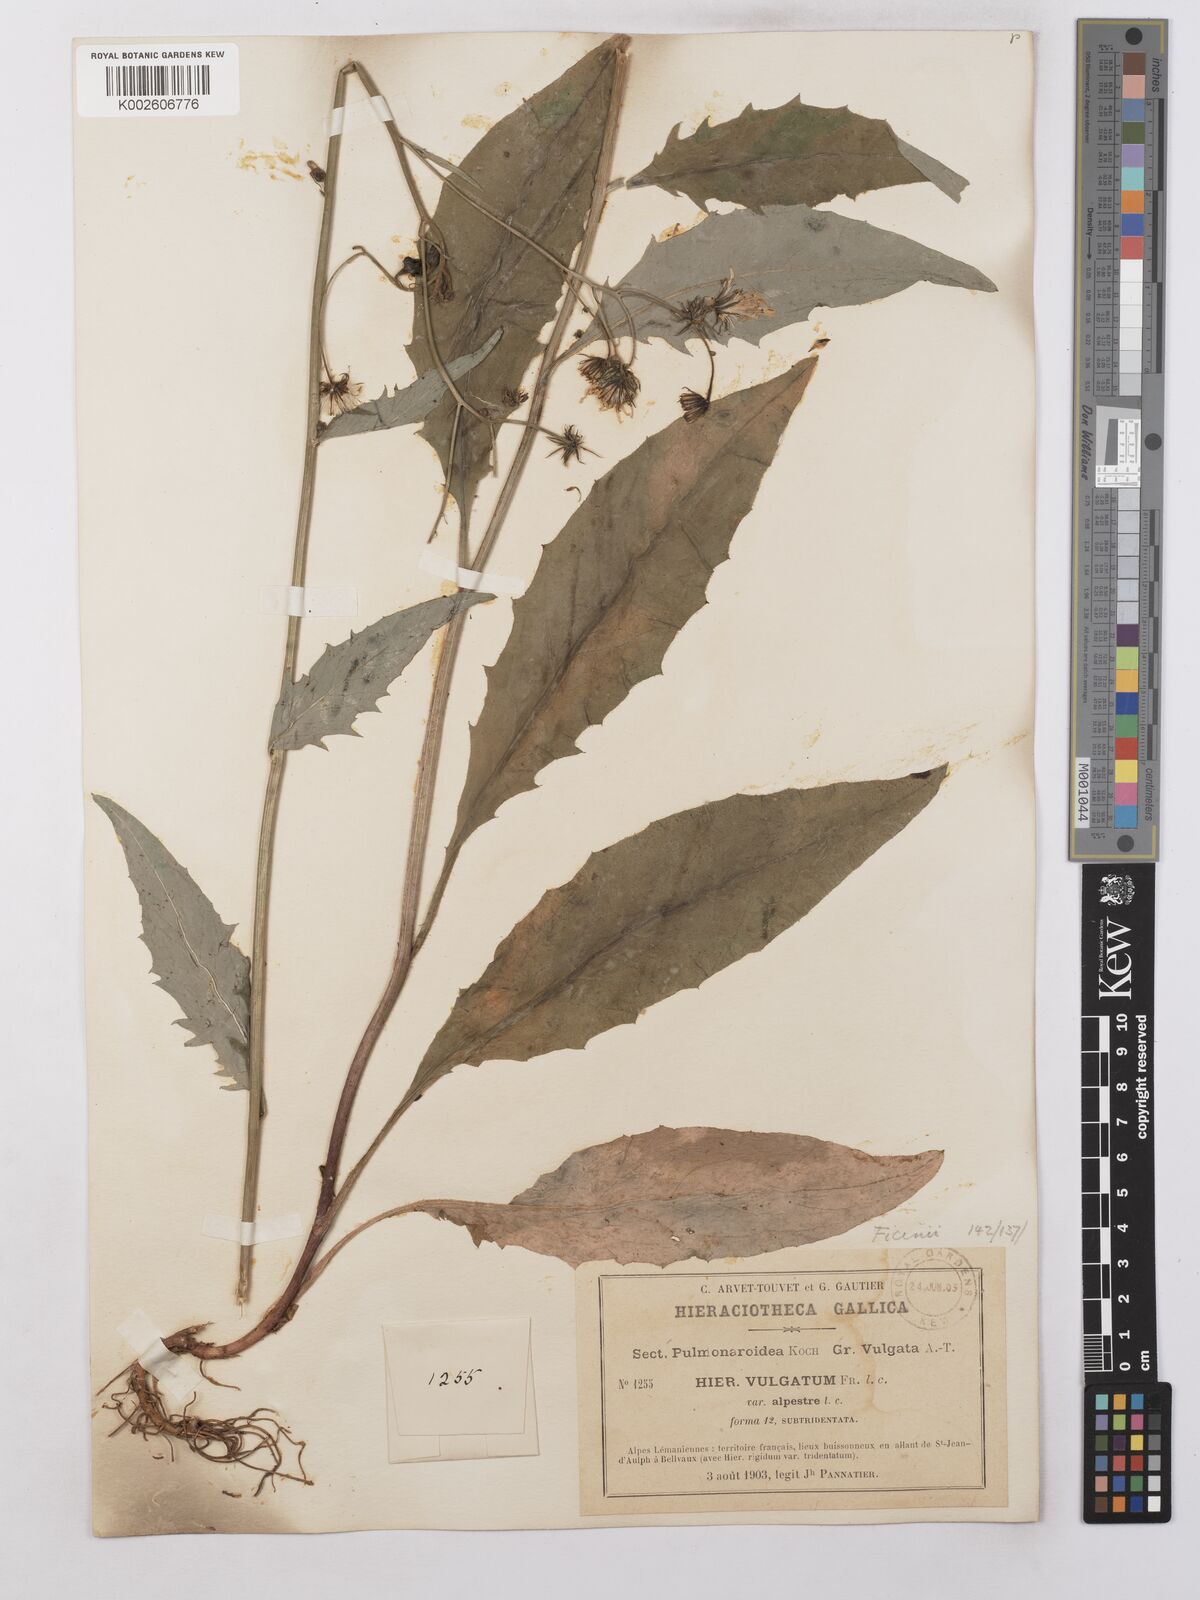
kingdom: Plantae
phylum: Tracheophyta
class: Magnoliopsida
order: Asterales
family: Asteraceae
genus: Hieracium
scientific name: Hieracium lachenalii
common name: Common hawkweed
